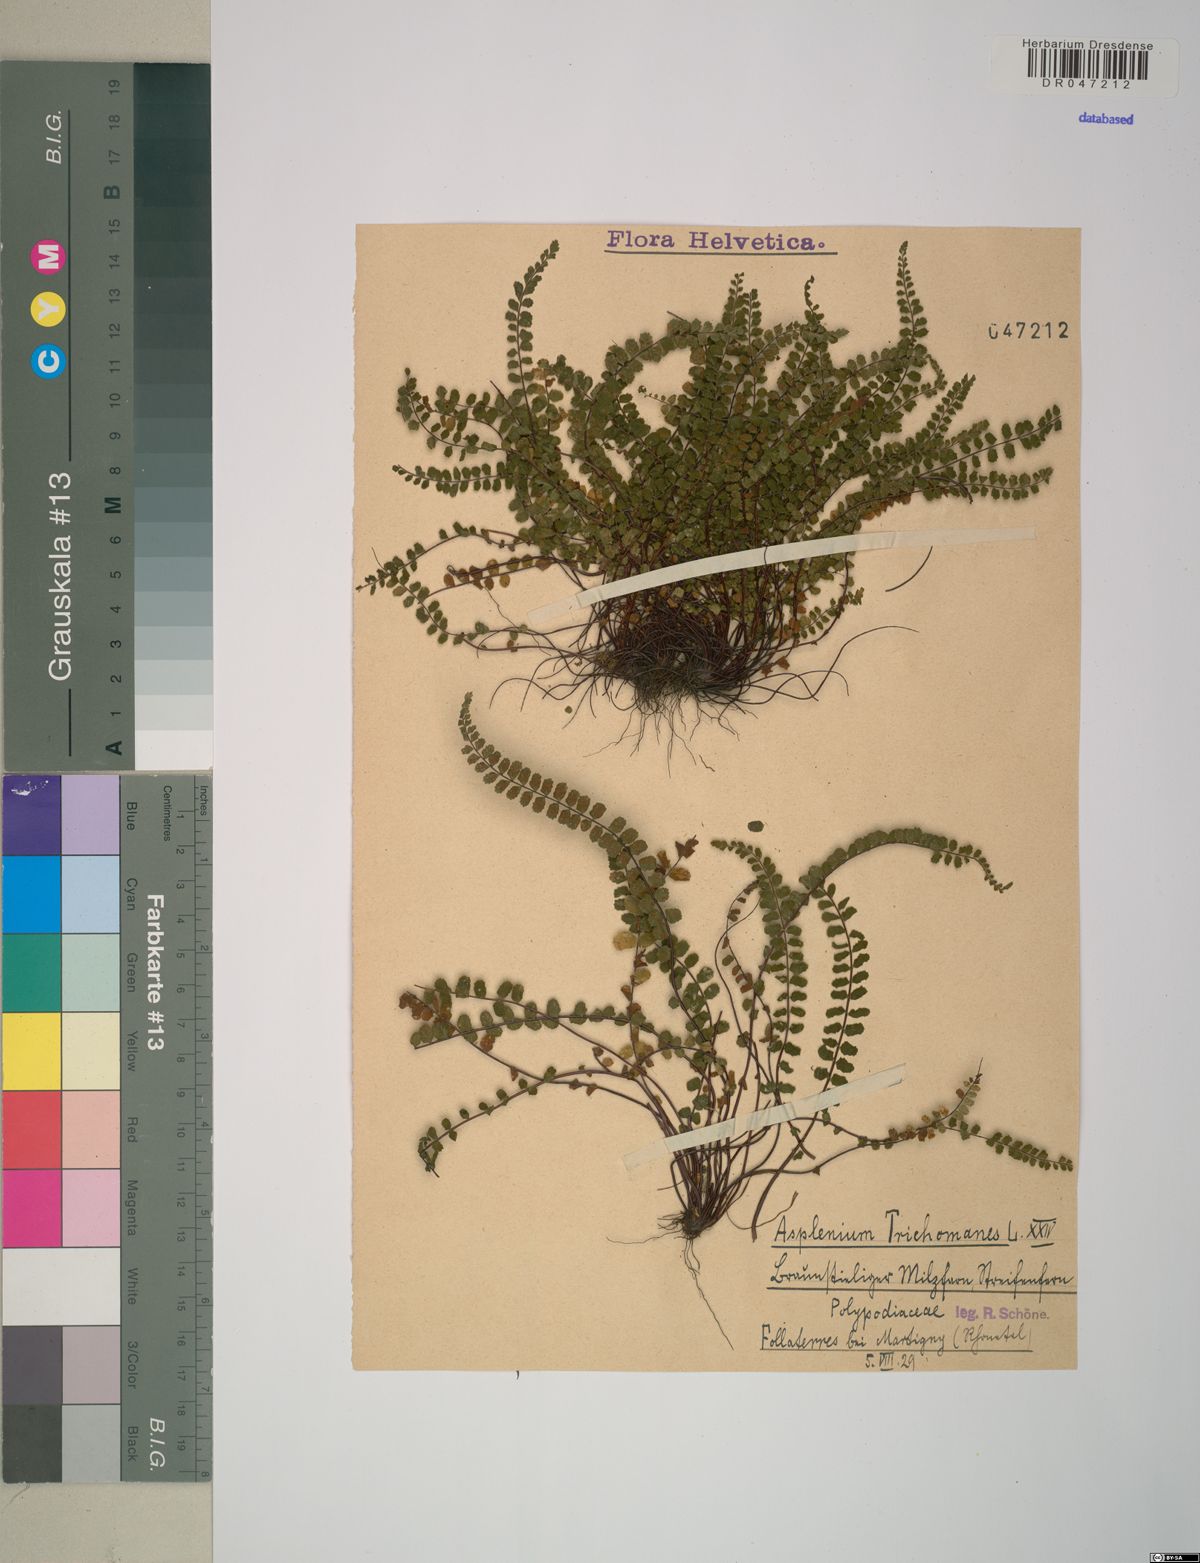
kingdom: Plantae
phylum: Tracheophyta
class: Polypodiopsida
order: Polypodiales
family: Aspleniaceae
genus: Asplenium
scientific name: Asplenium trichomanes
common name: Maidenhair spleenwort
